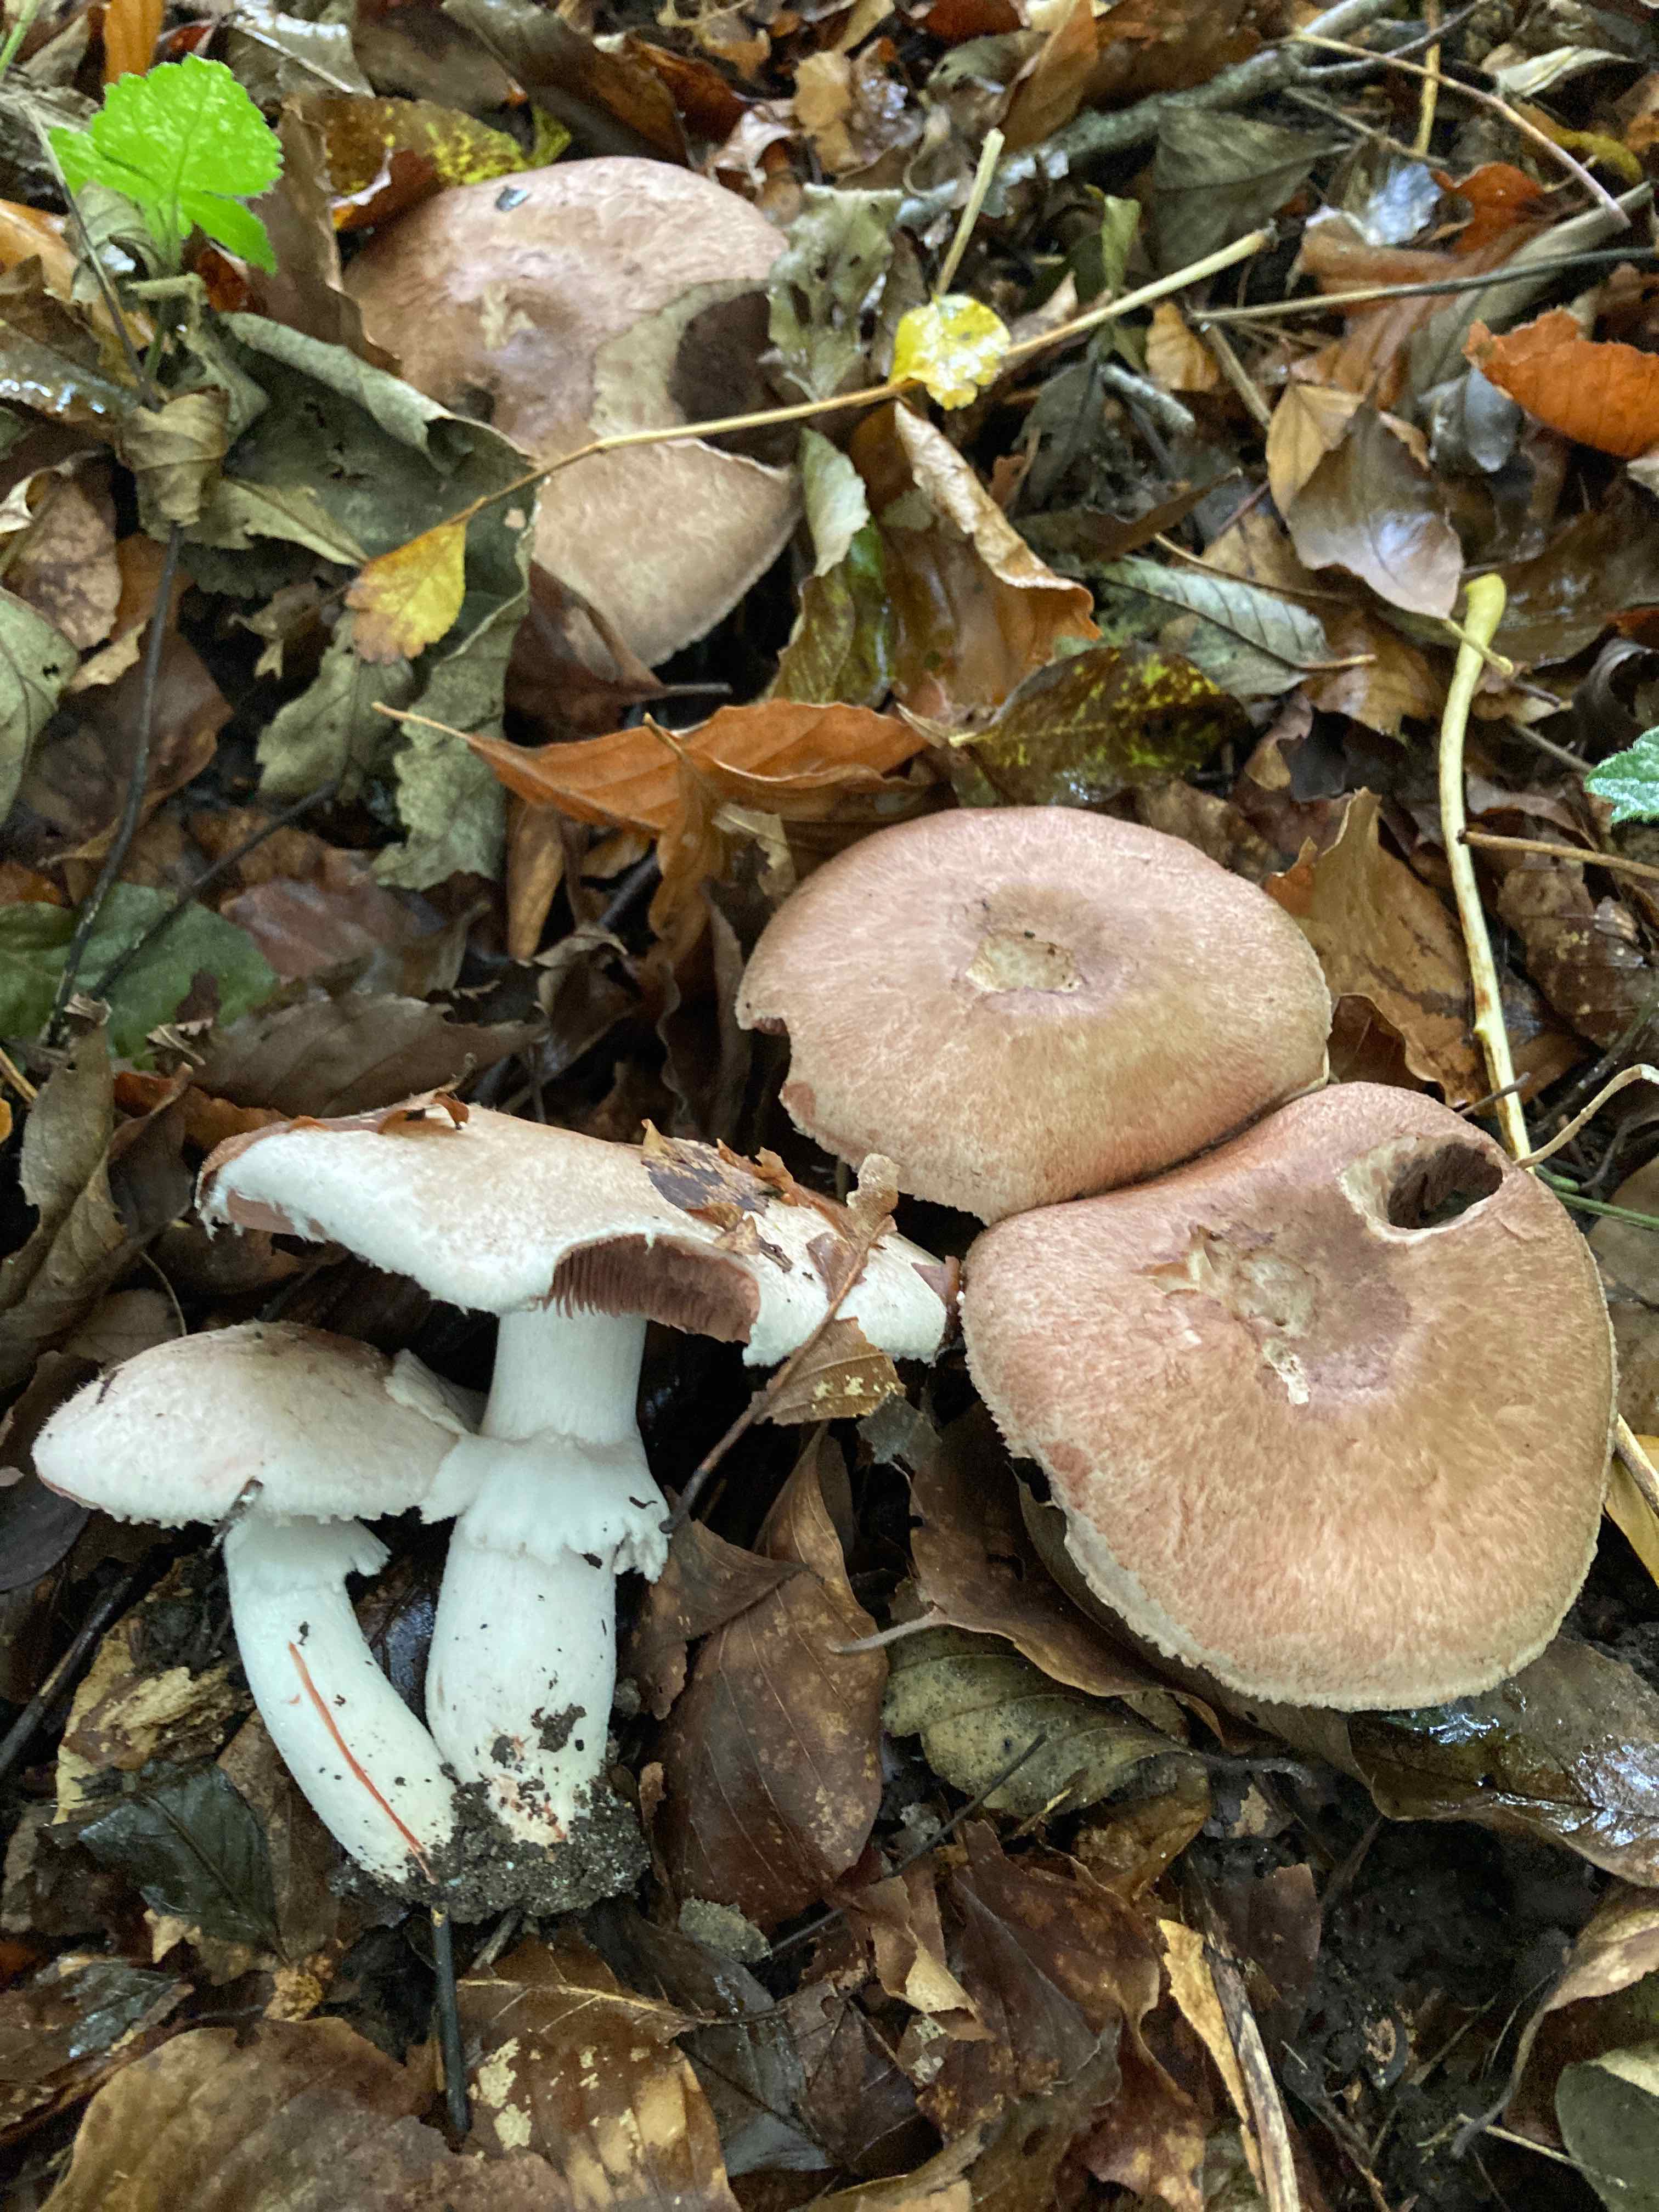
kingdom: Fungi
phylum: Basidiomycota
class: Agaricomycetes
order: Agaricales
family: Agaricaceae
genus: Agaricus
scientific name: Agaricus langei
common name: stor blod-champignon
